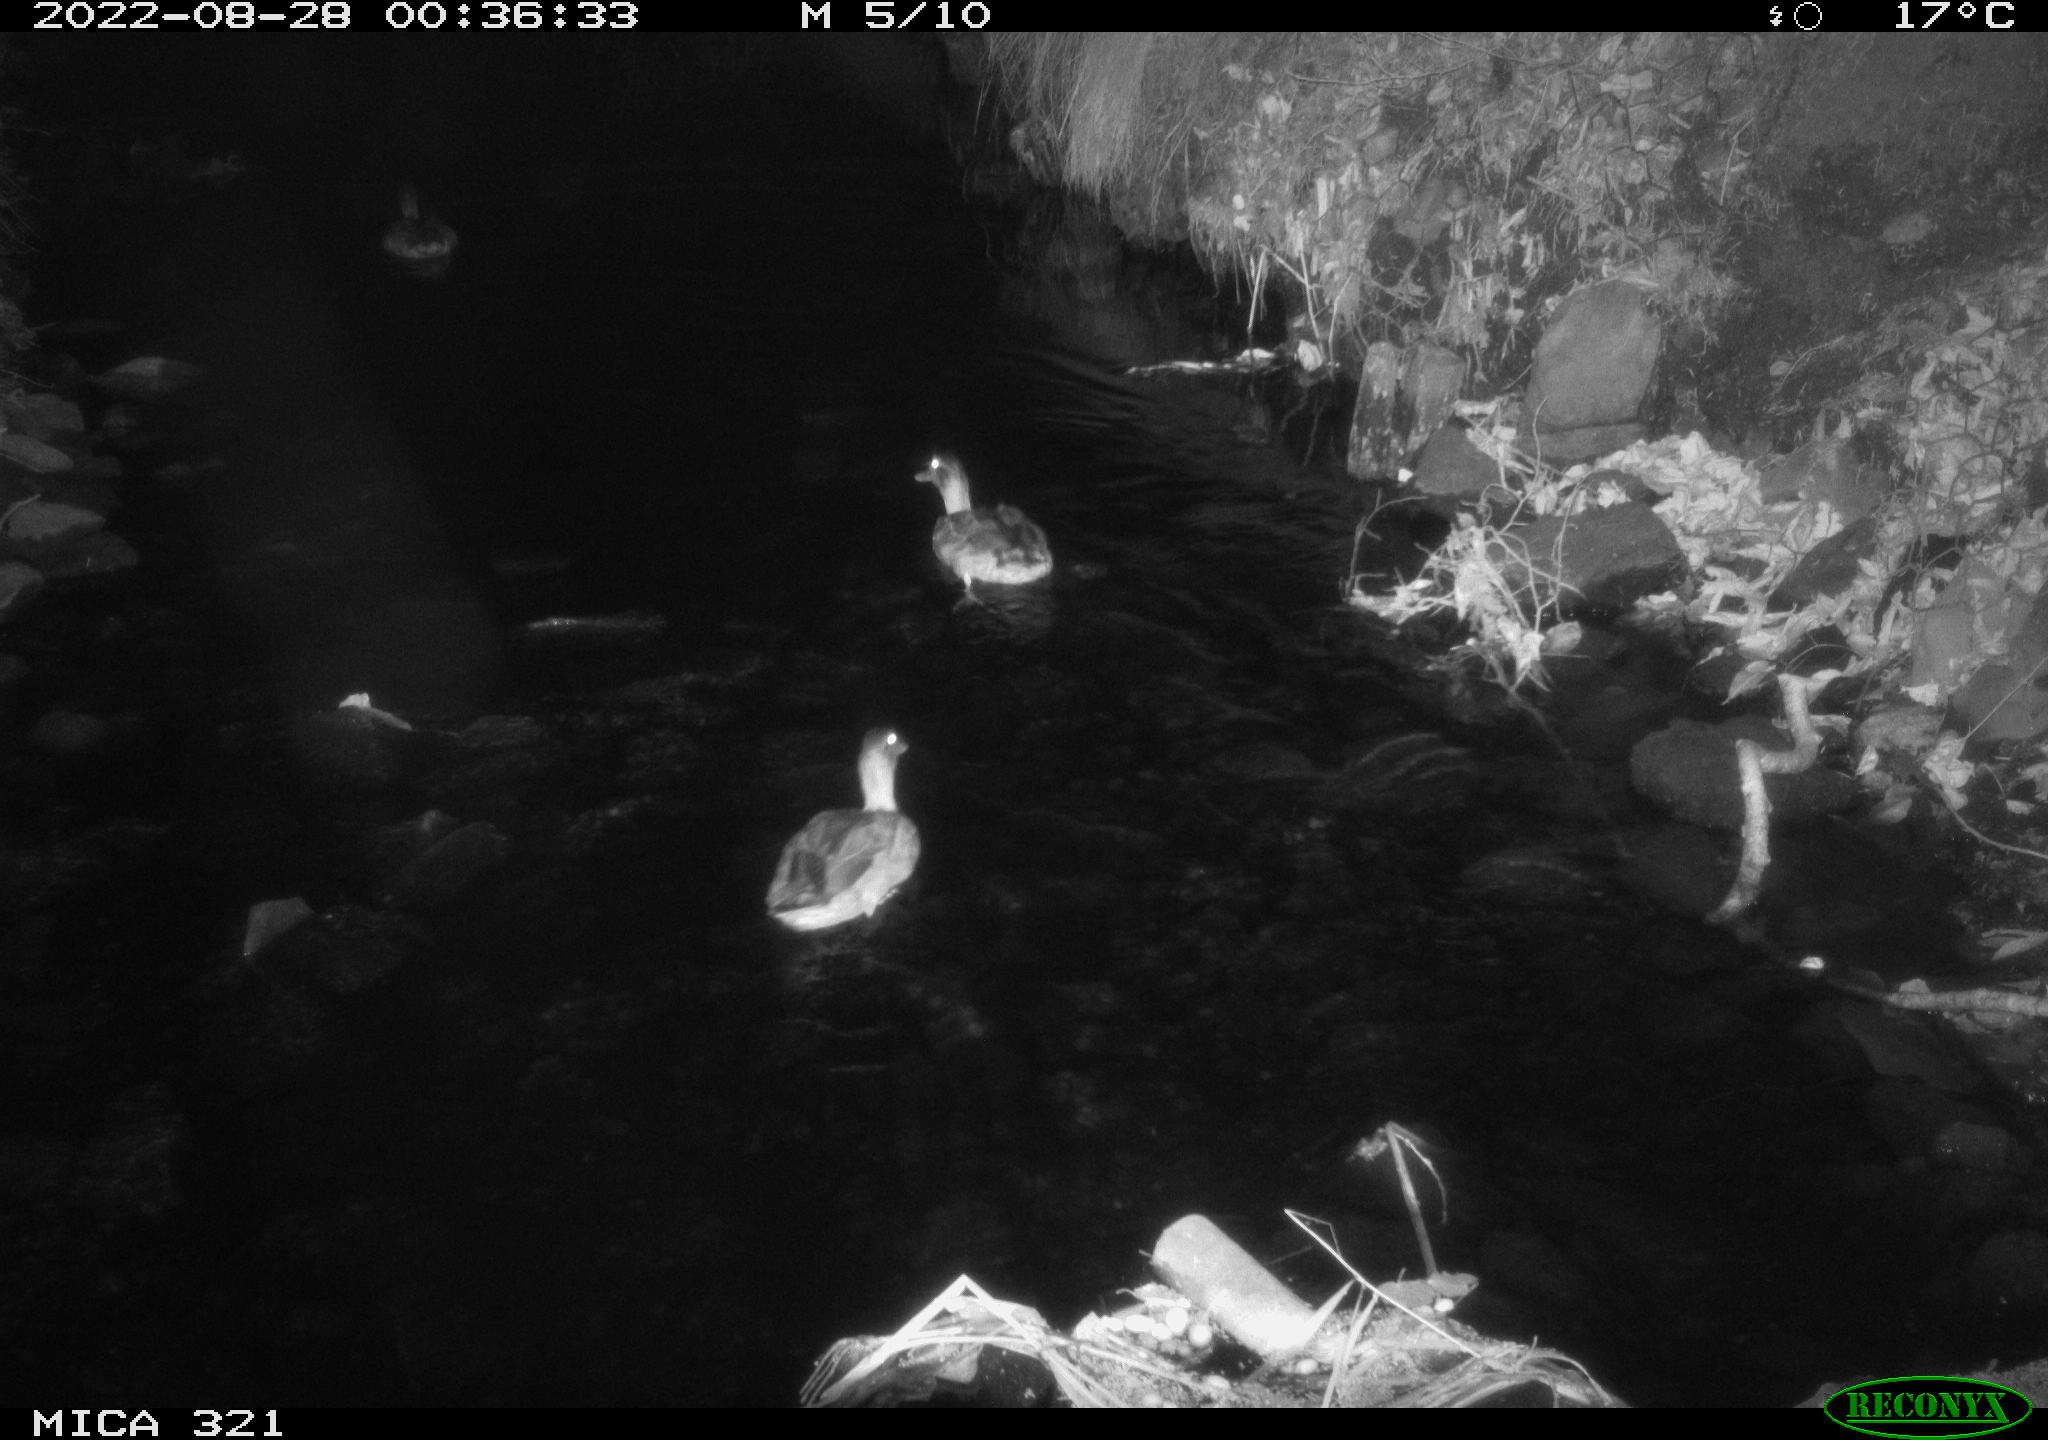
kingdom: Animalia
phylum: Chordata
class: Aves
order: Anseriformes
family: Anatidae
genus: Anas
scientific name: Anas platyrhynchos
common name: Mallard
